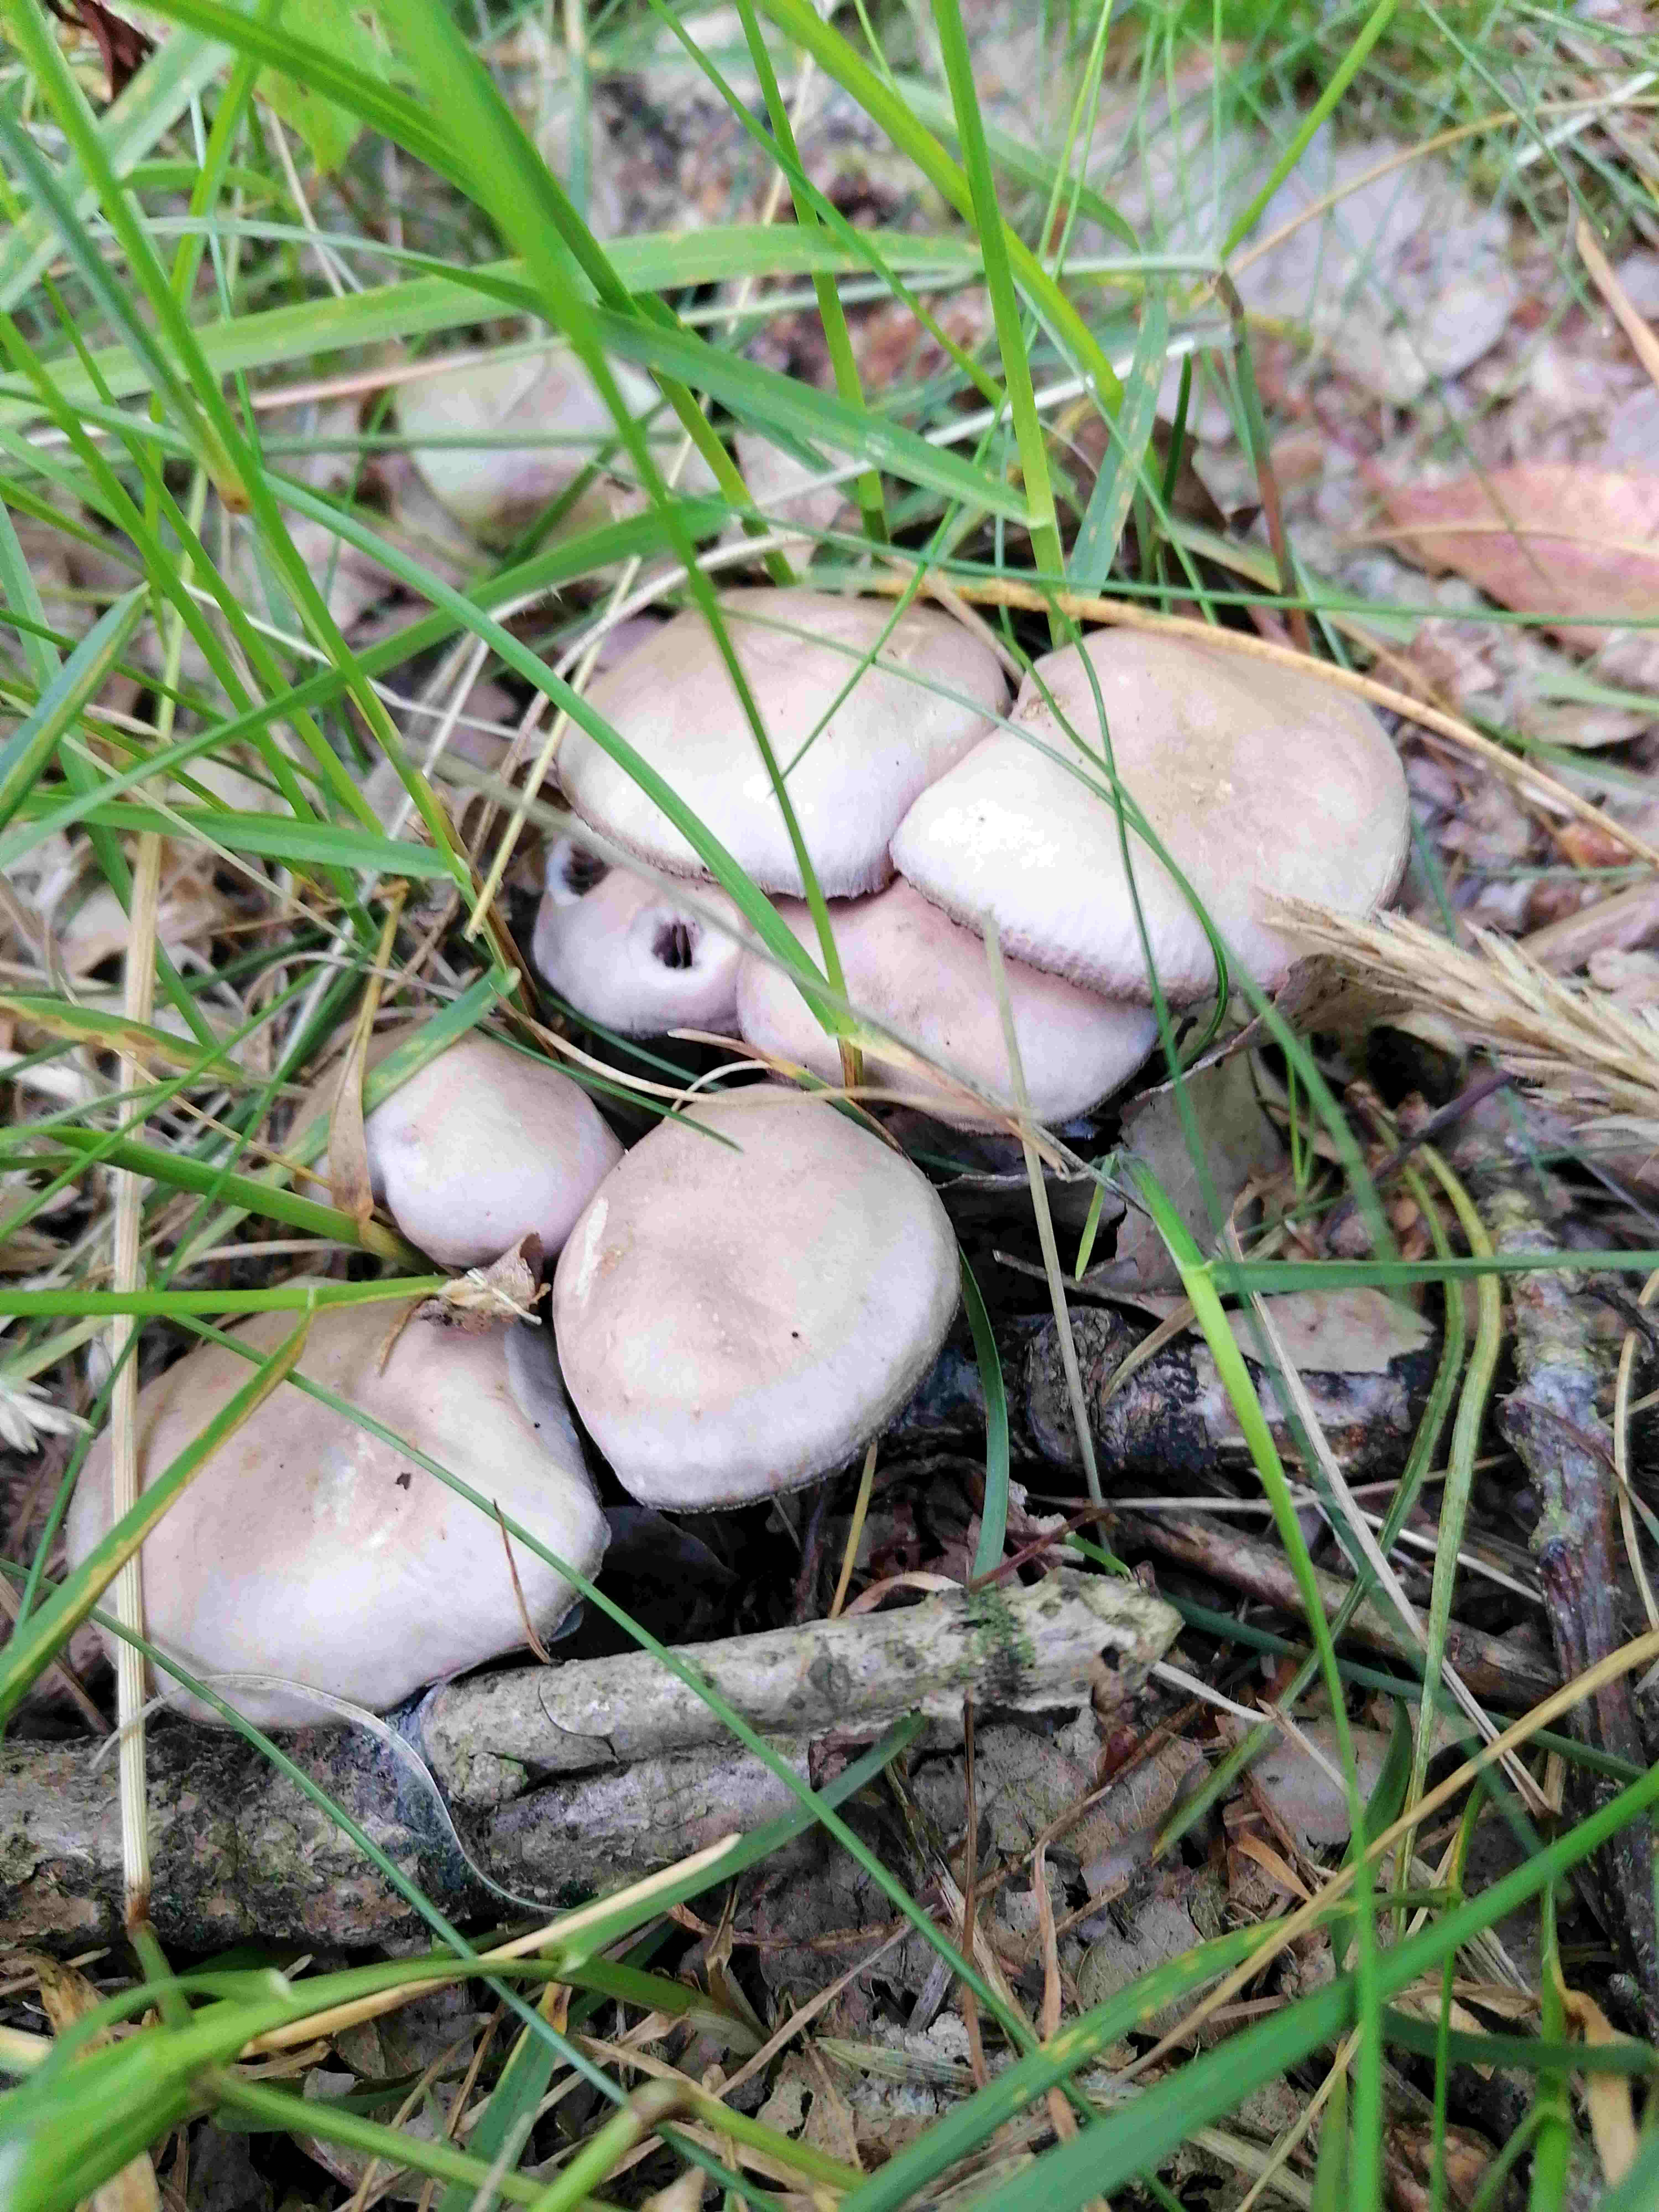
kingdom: Fungi
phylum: Basidiomycota
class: Agaricomycetes
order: Agaricales
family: Mycenaceae
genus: Mycena
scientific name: Mycena pelianthina
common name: mørkbladet huesvamp
